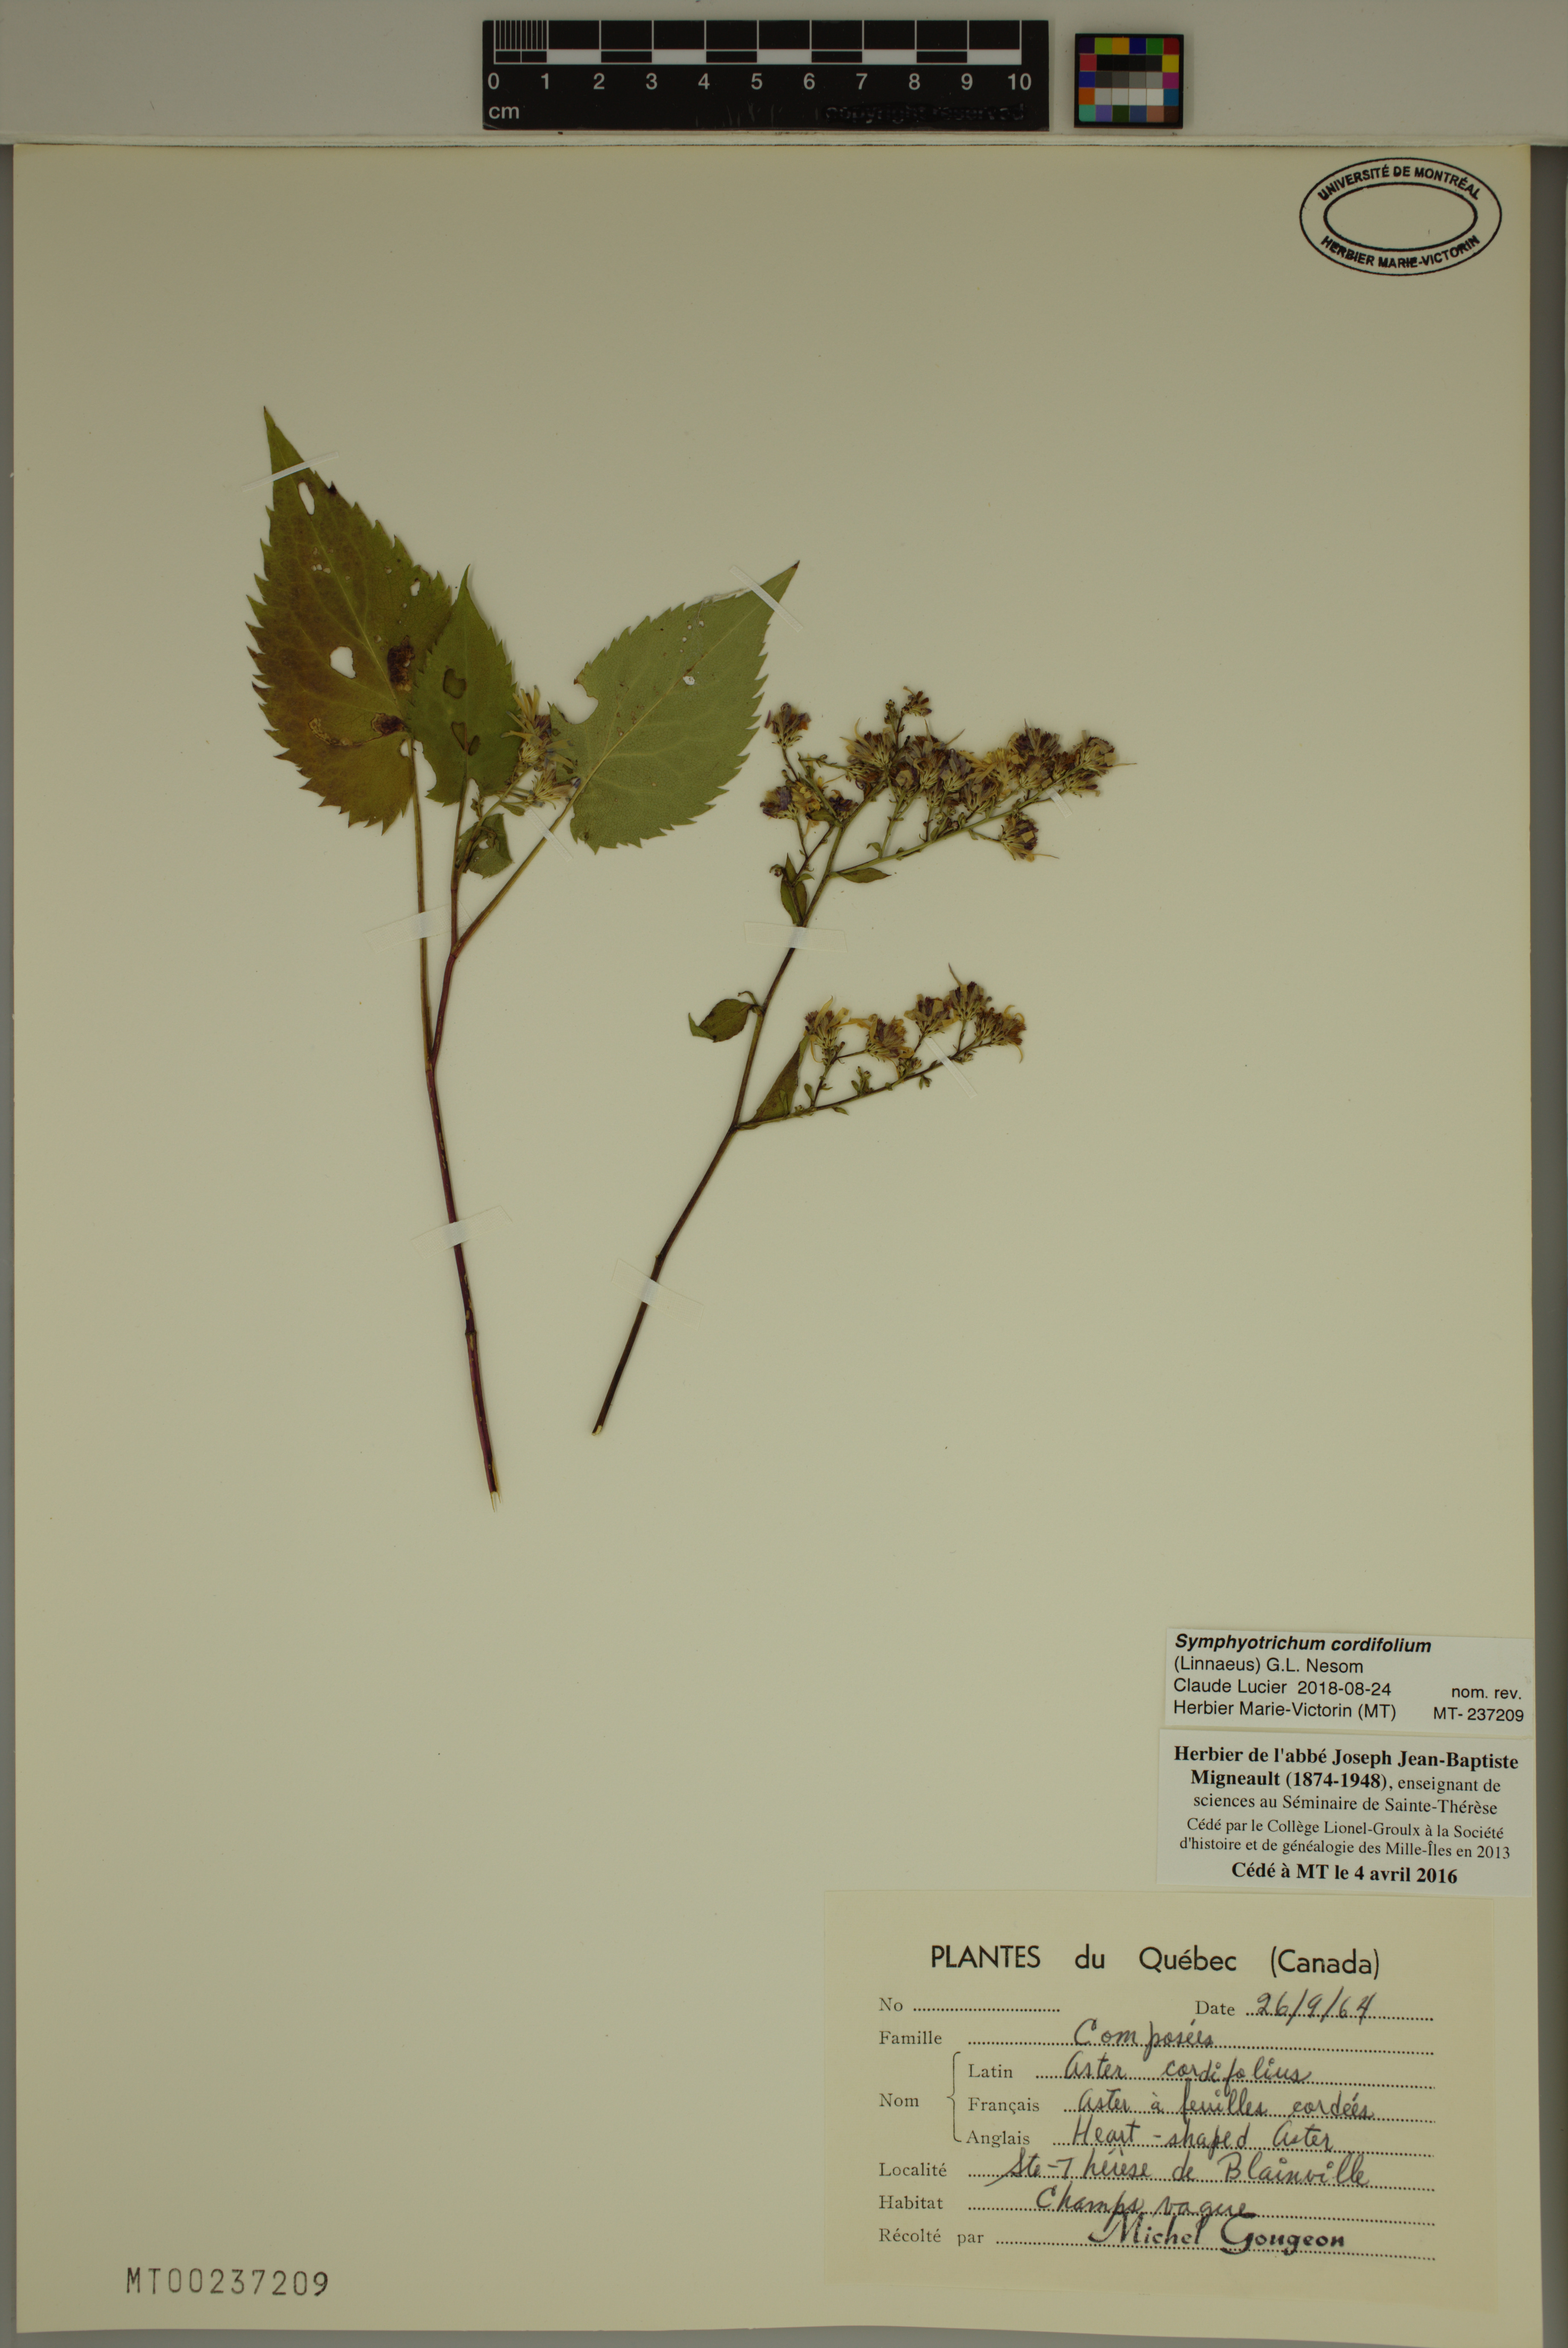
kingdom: Plantae
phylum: Tracheophyta
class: Magnoliopsida
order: Asterales
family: Asteraceae
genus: Symphyotrichum
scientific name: Symphyotrichum cordifolium
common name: Beeweed
